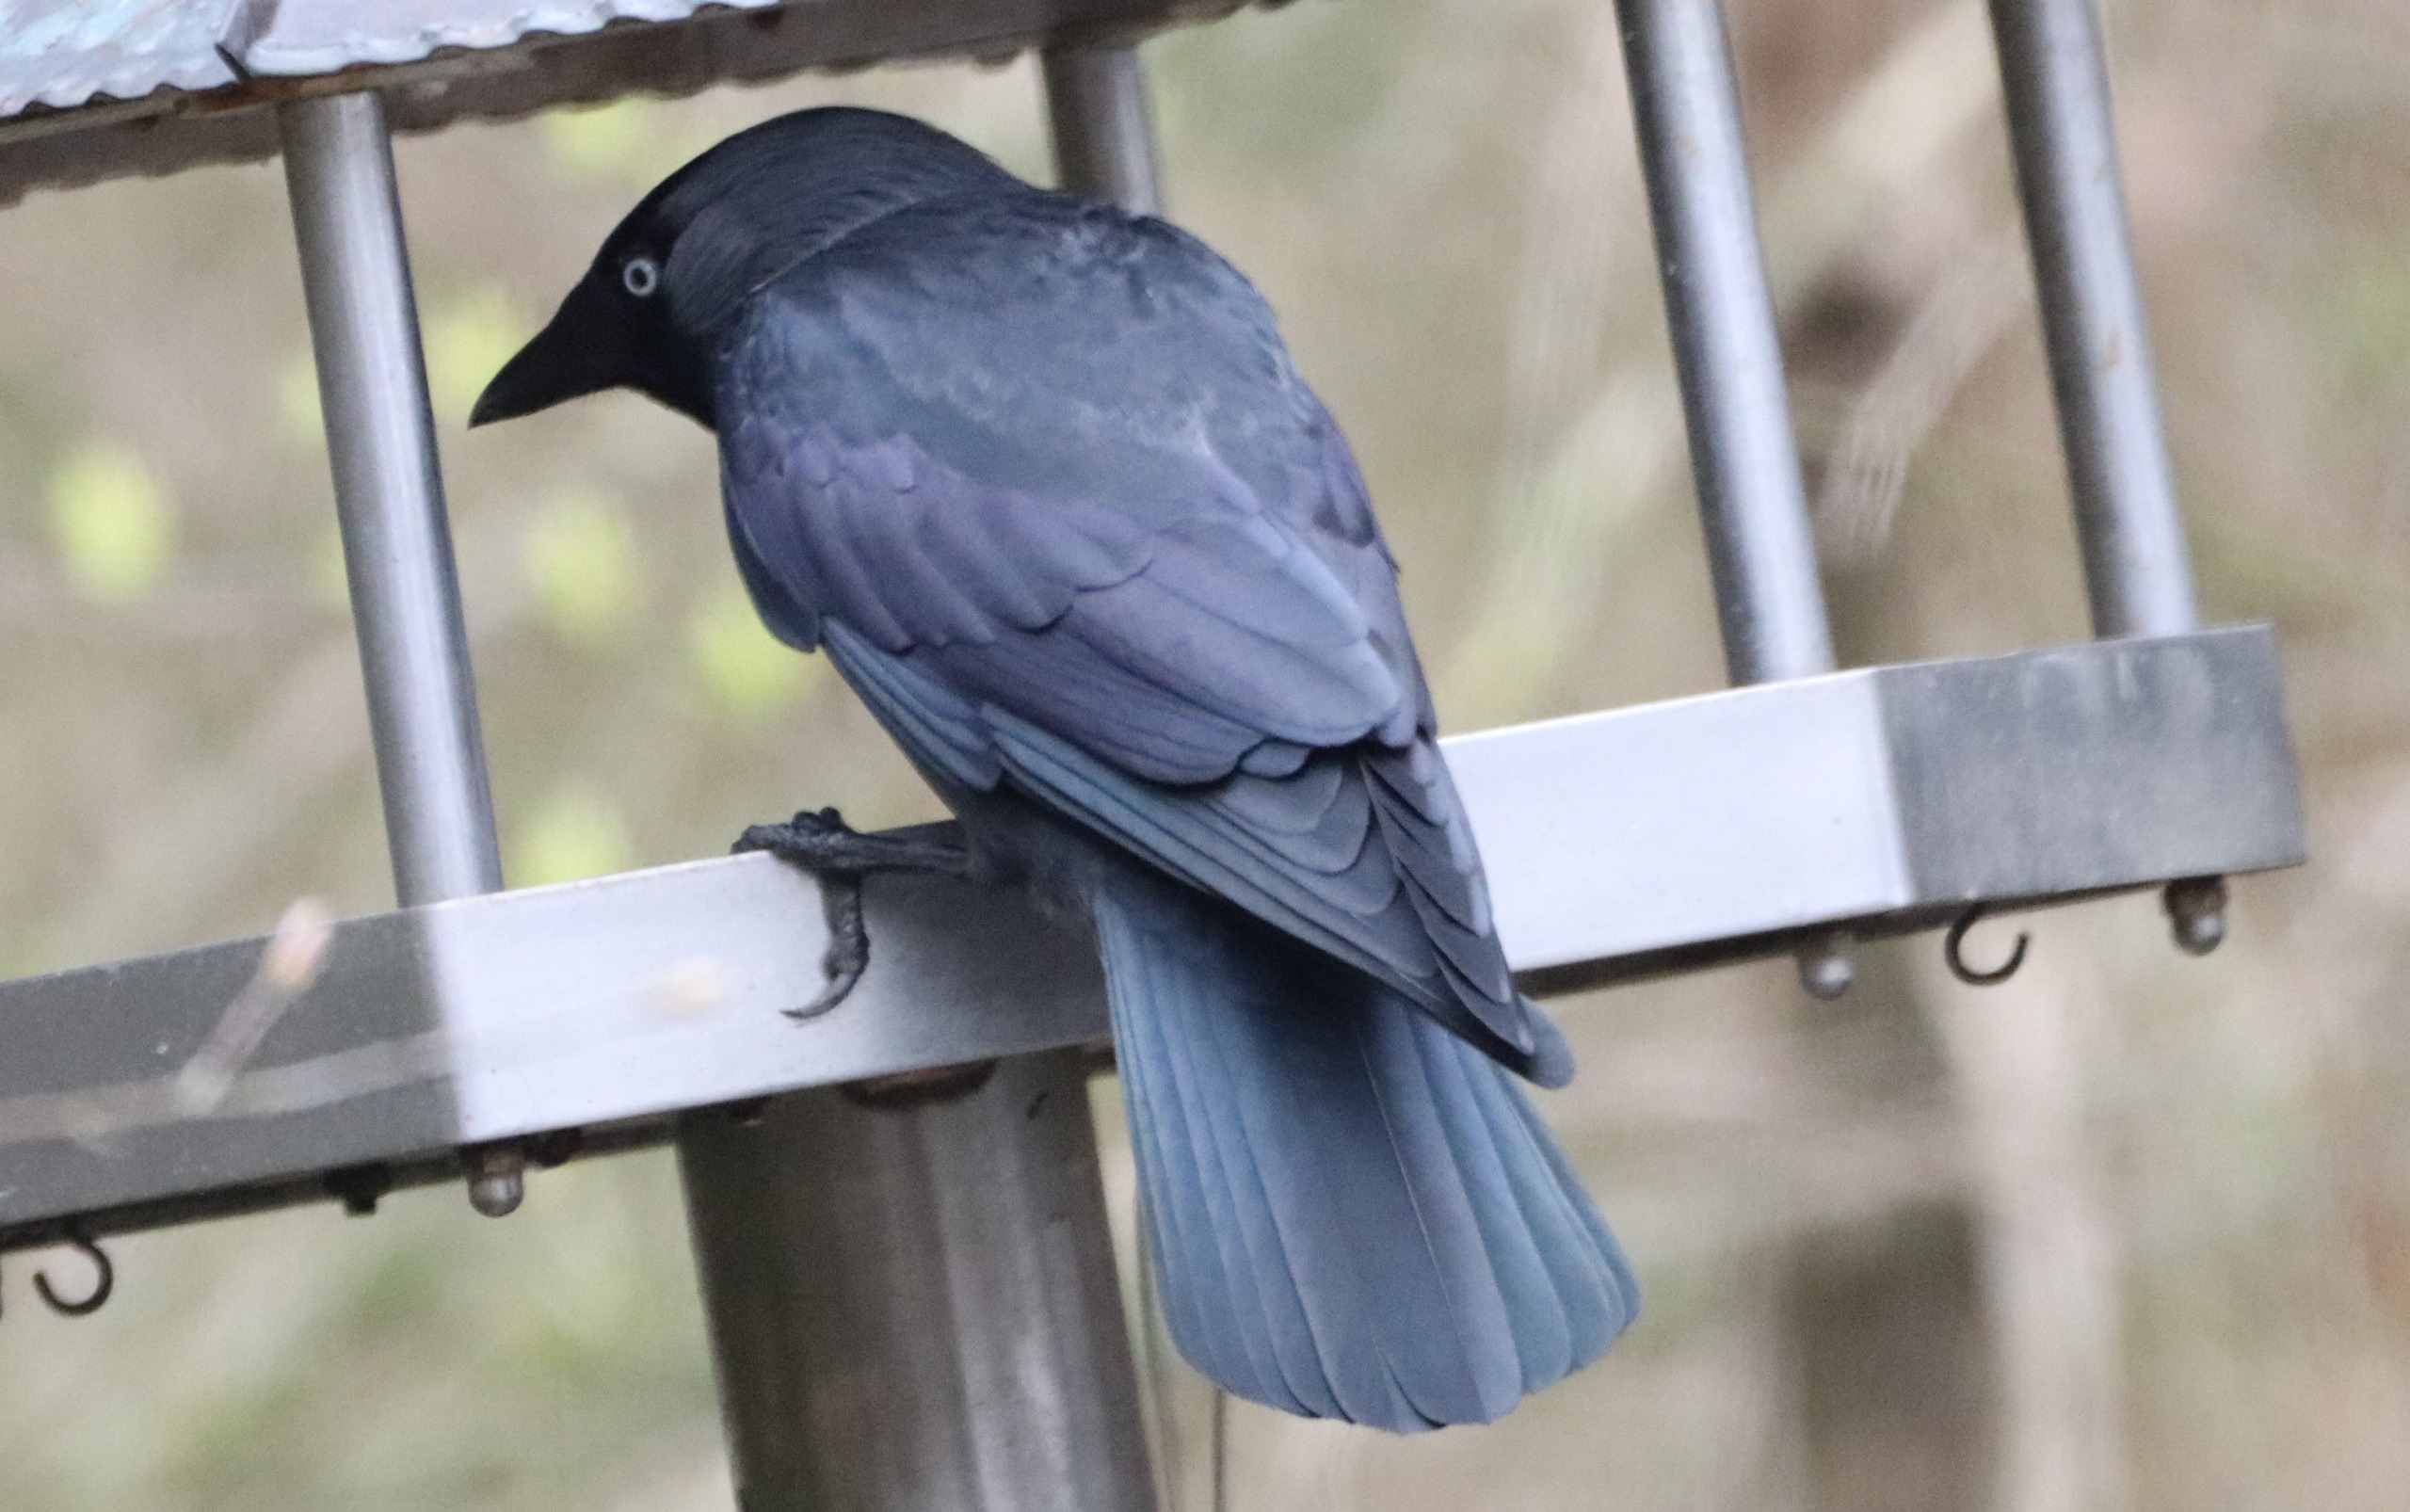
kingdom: Animalia
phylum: Chordata
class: Aves
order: Passeriformes
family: Corvidae
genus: Coloeus
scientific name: Coloeus monedula
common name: Allike
